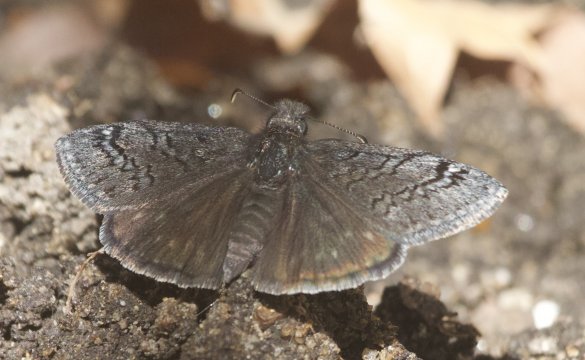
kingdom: Animalia
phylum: Arthropoda
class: Insecta
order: Lepidoptera
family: Hesperiidae
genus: Erynnis
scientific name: Erynnis brizo
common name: Sleepy Duskywing
